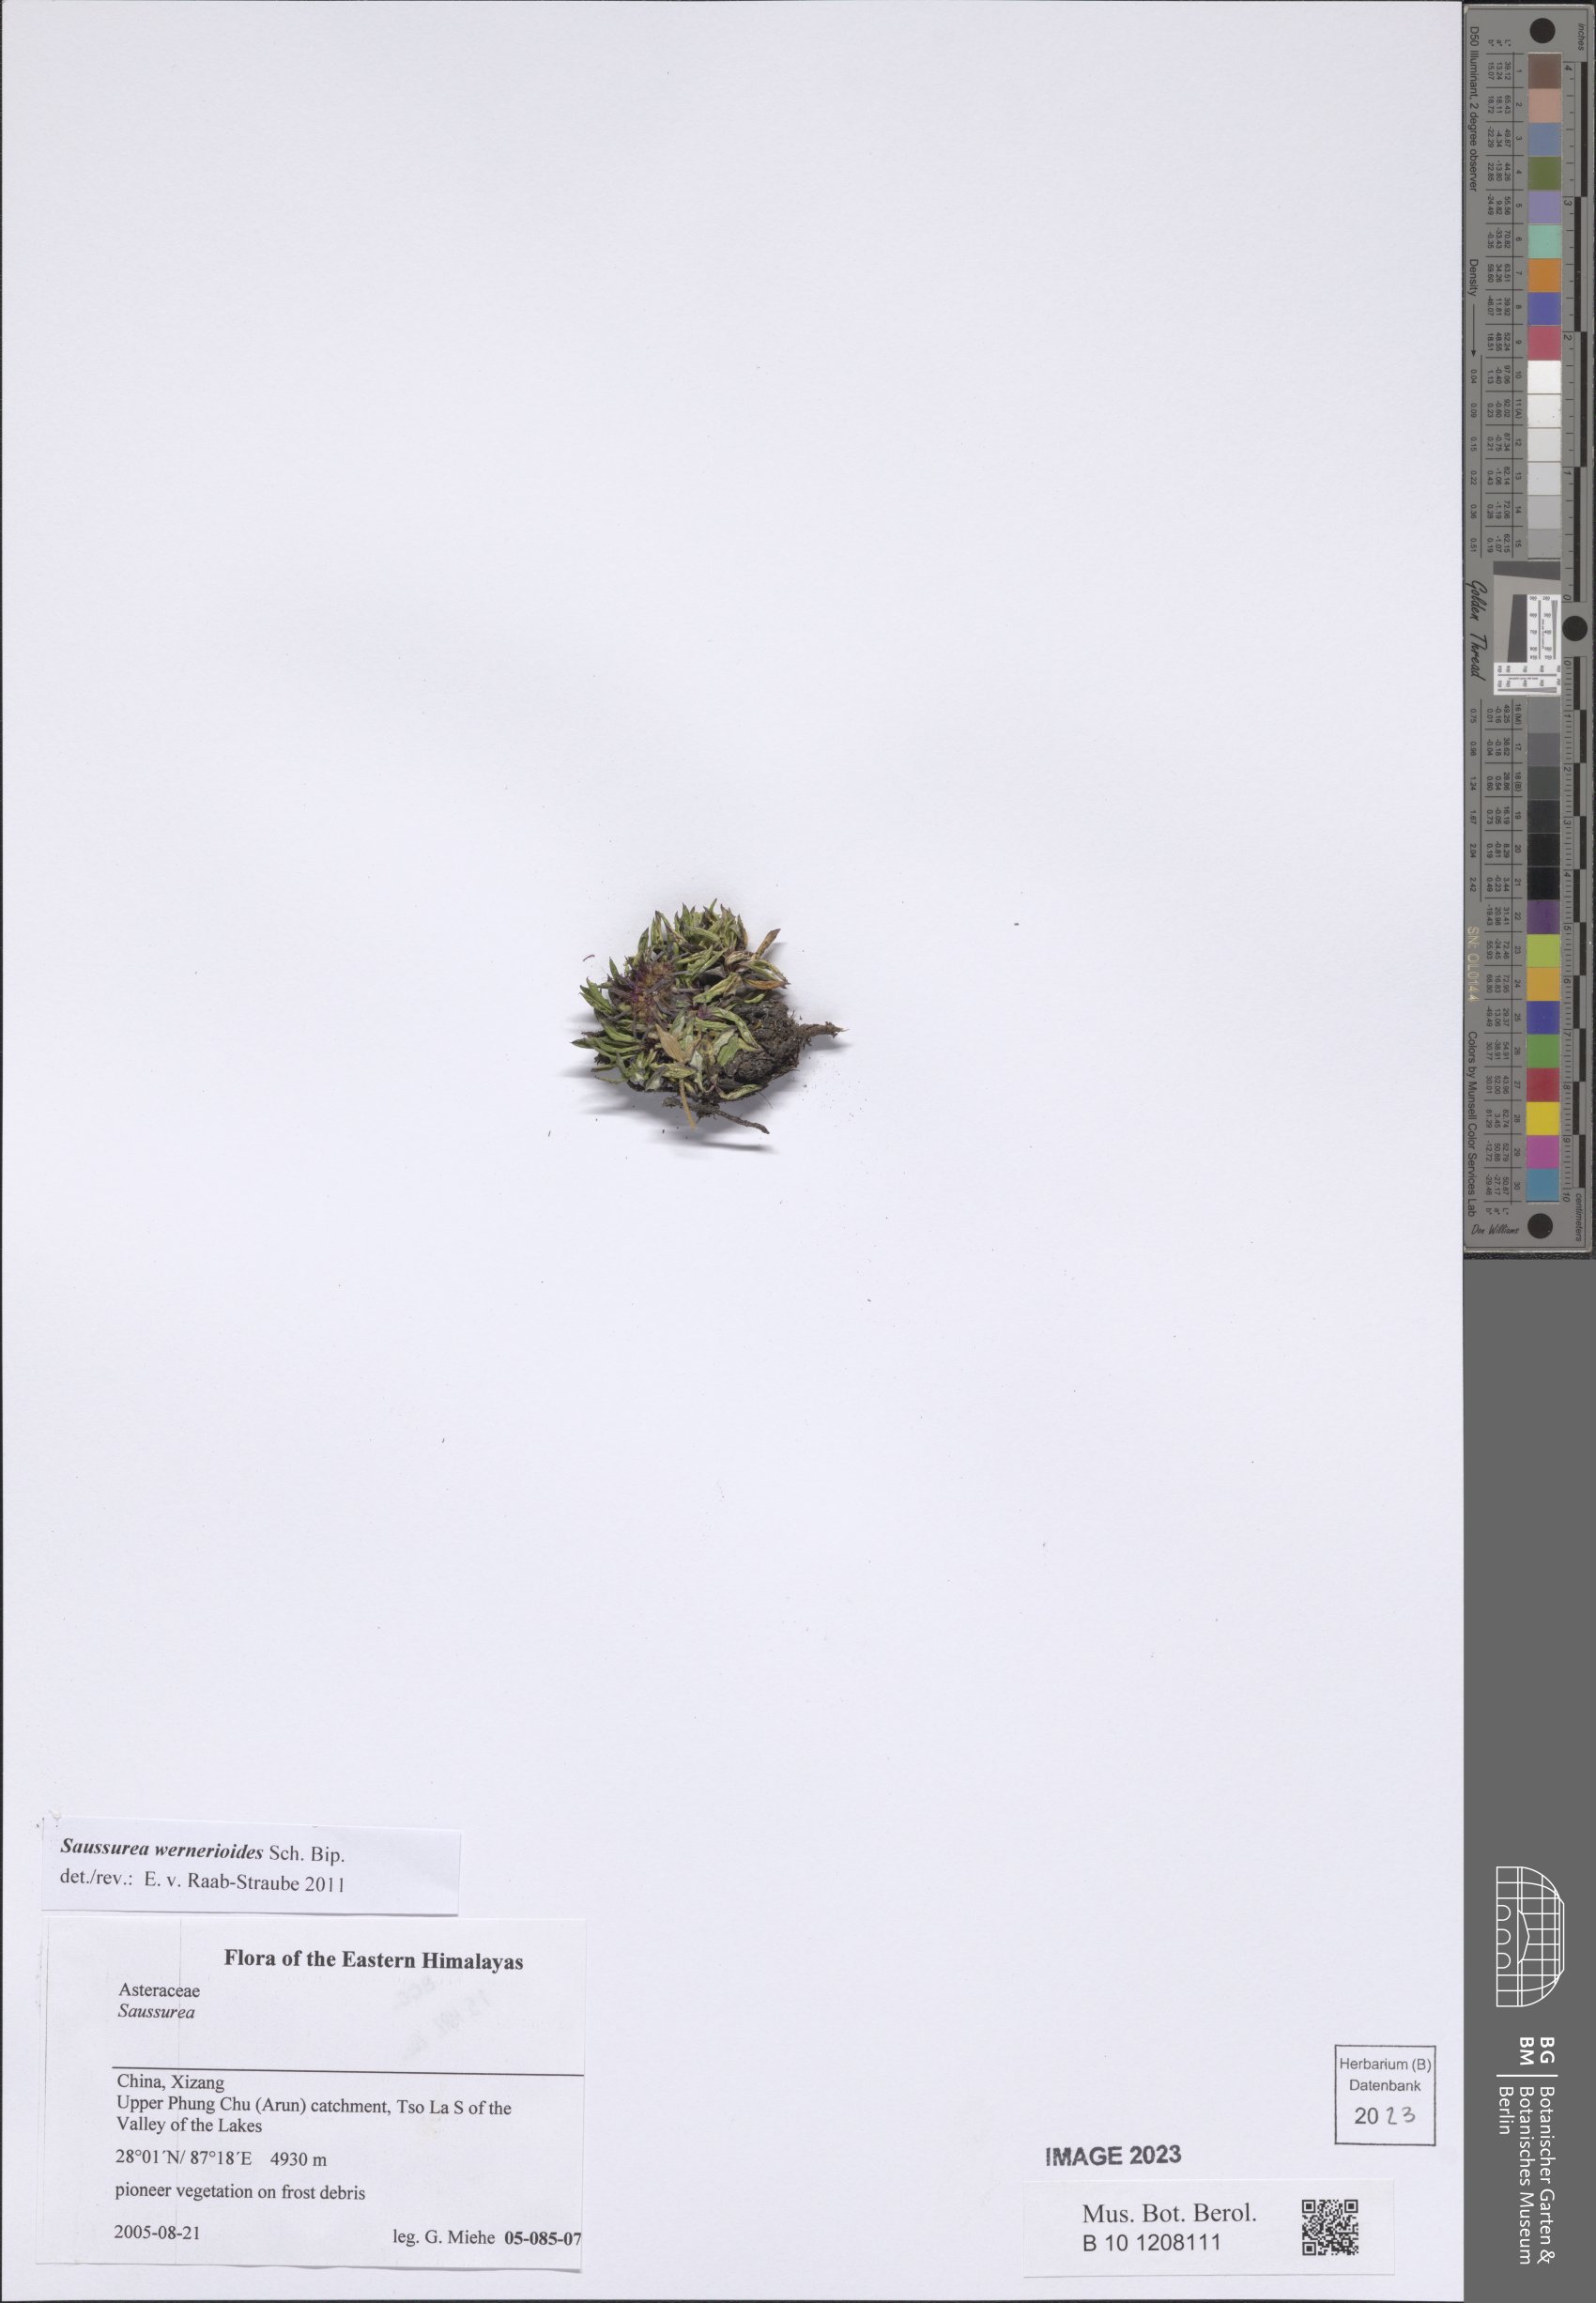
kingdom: Plantae
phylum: Tracheophyta
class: Magnoliopsida
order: Asterales
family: Asteraceae
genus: Saussurea
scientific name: Saussurea wernerioides
